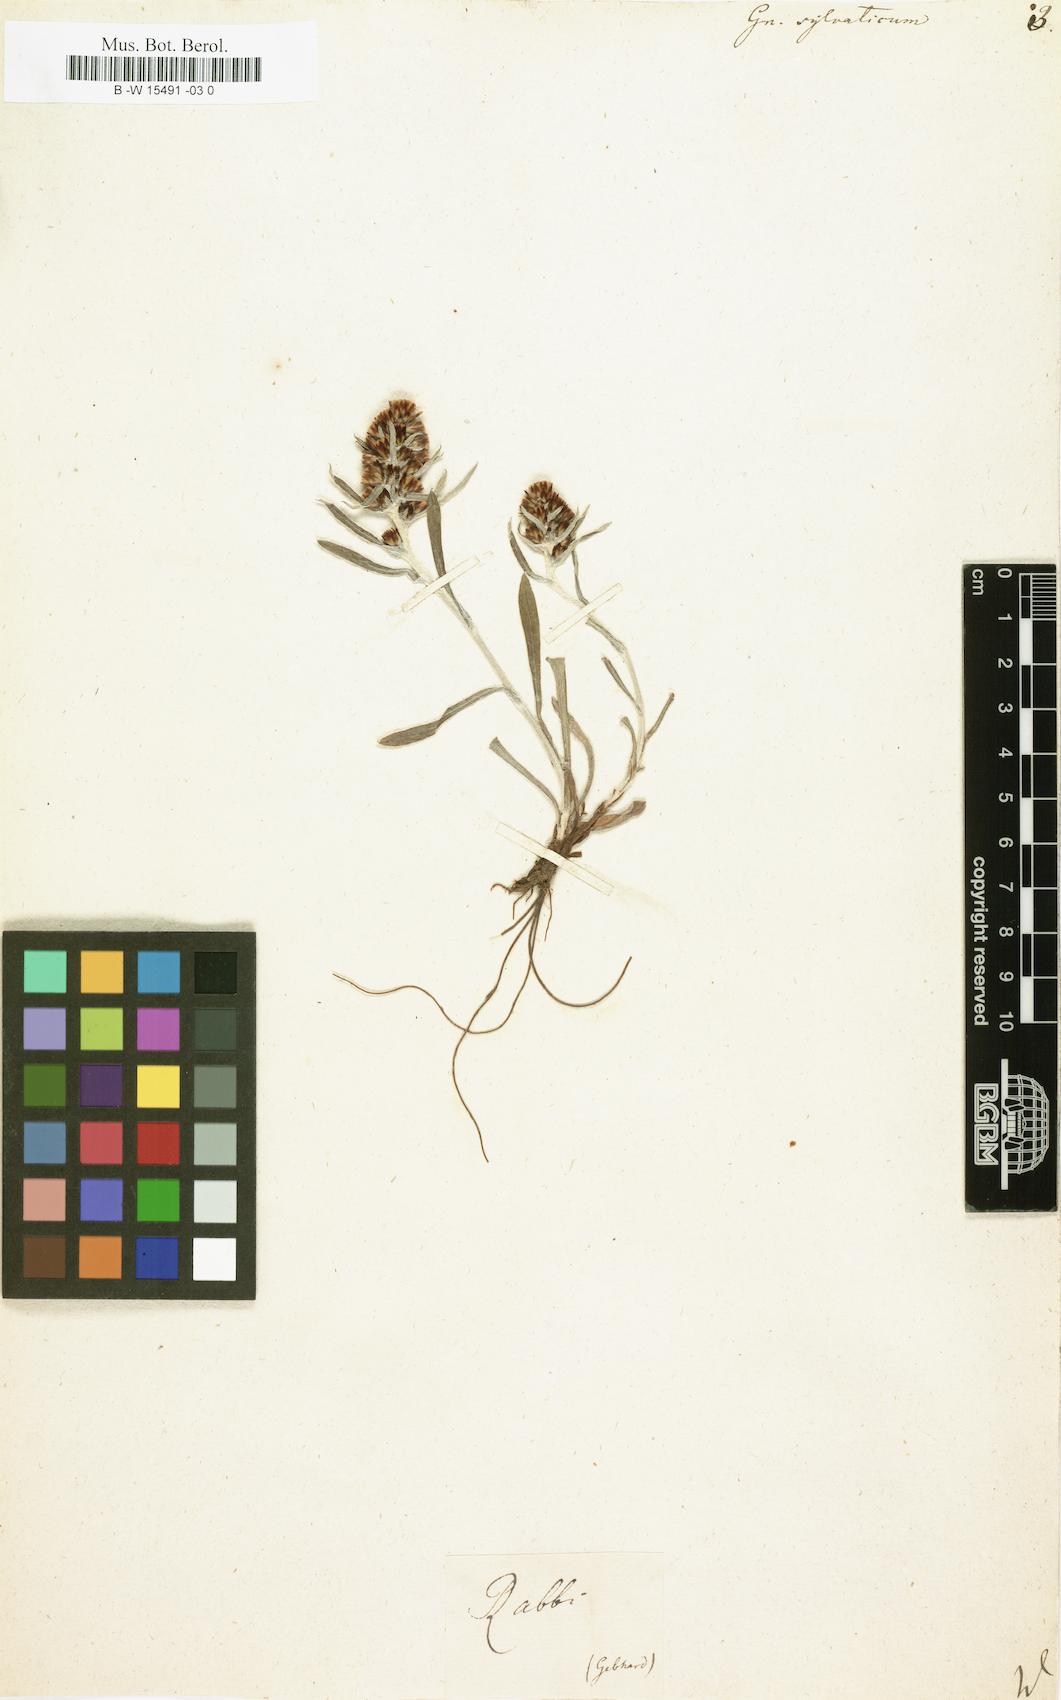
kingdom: Plantae
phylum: Tracheophyta
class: Magnoliopsida
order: Asterales
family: Asteraceae
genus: Gnaphalium
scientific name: Gnaphalium sylvaticum
